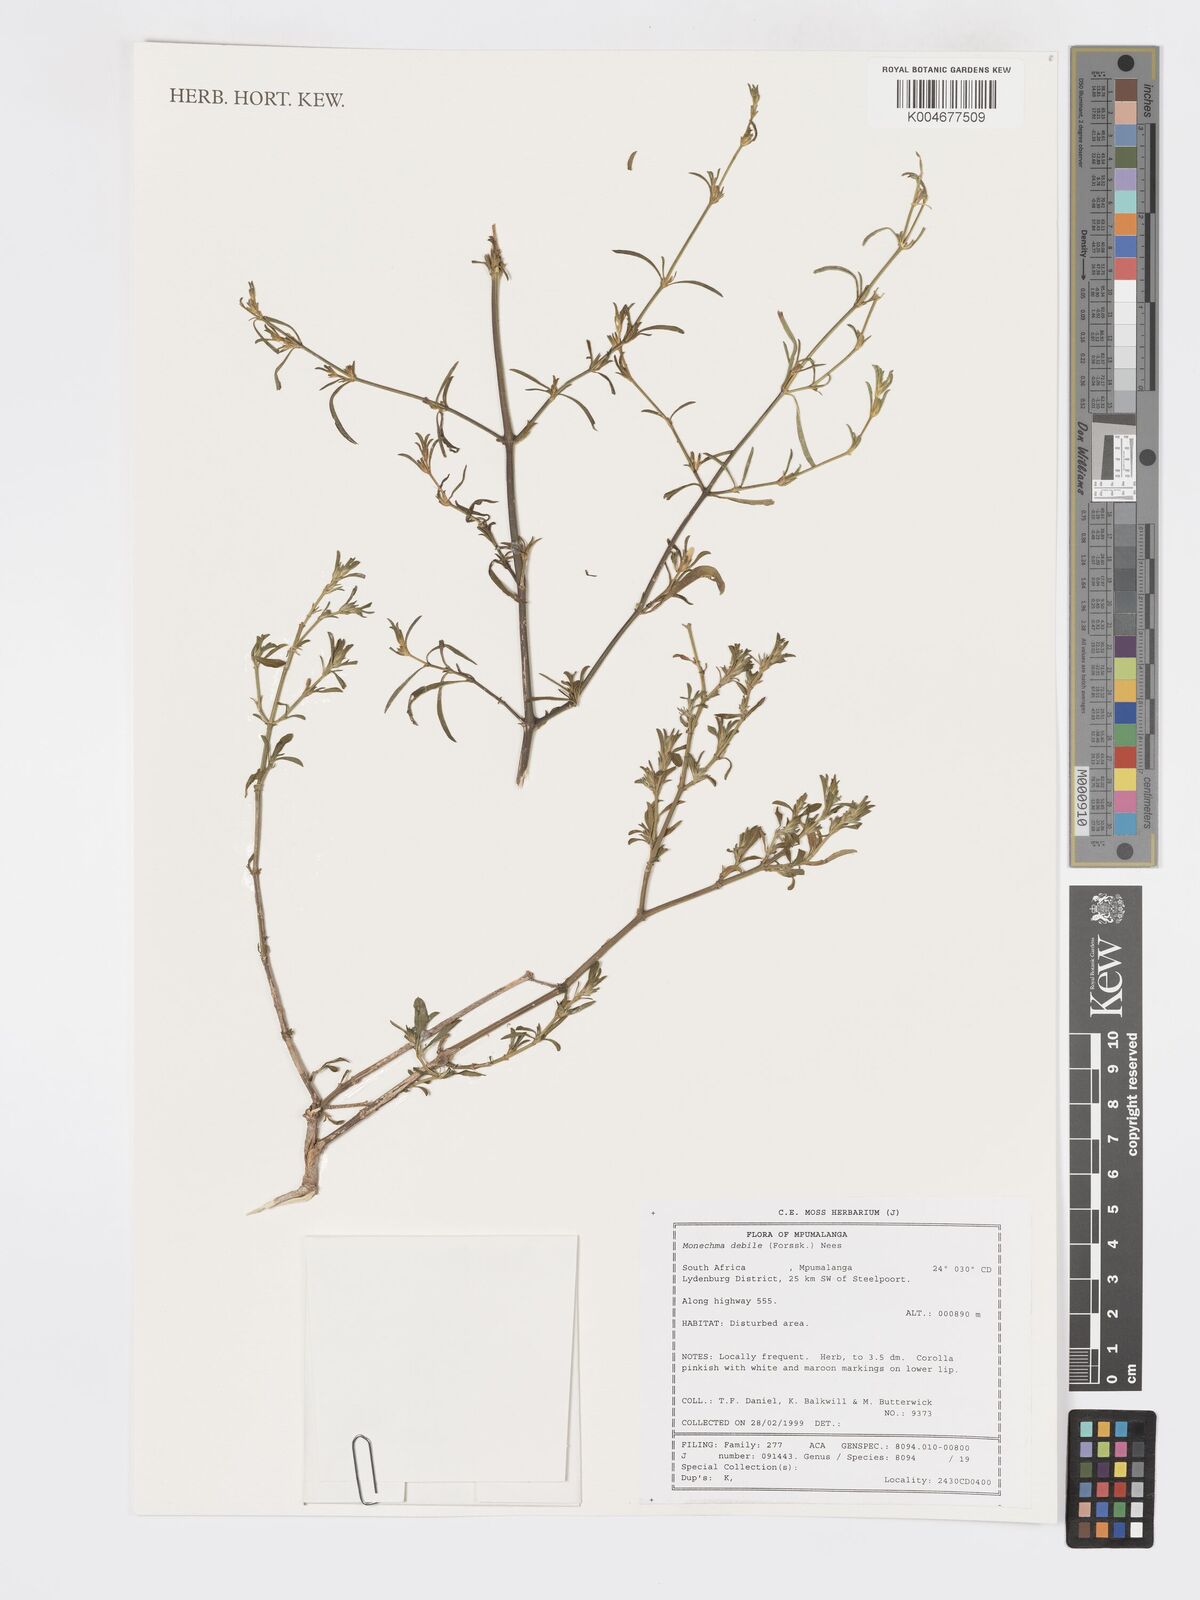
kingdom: Plantae
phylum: Tracheophyta
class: Magnoliopsida
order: Lamiales
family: Acanthaceae
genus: Pogonospermum
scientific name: Pogonospermum
